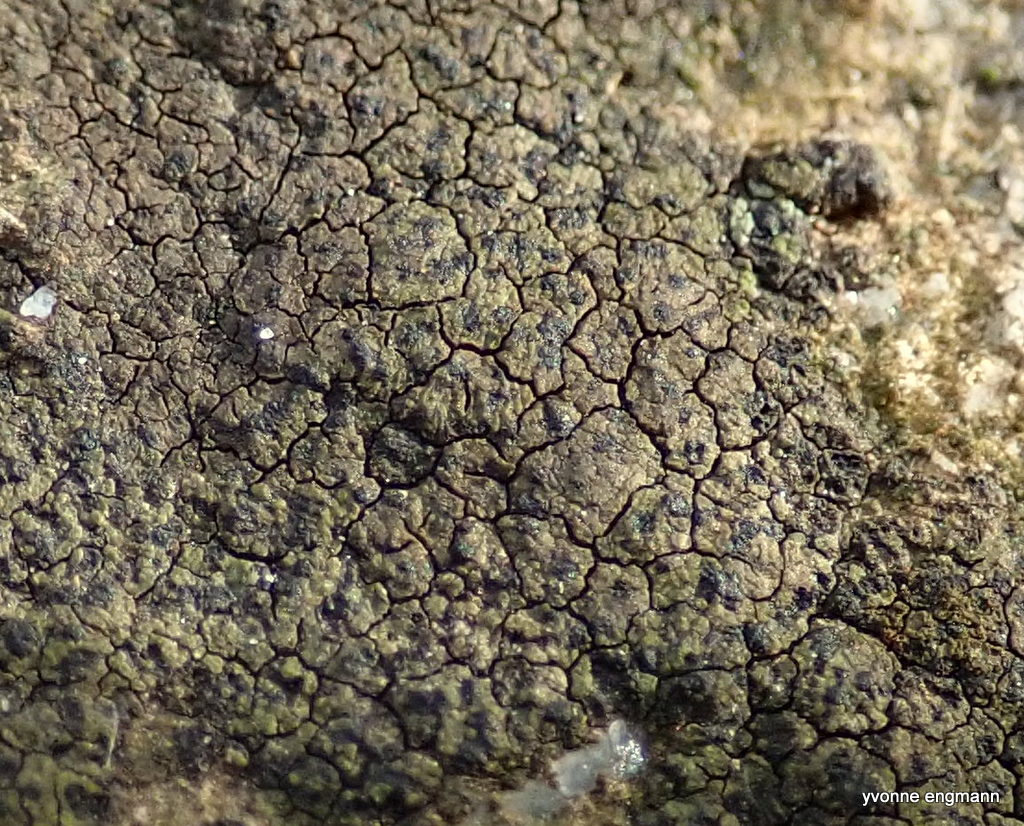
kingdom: Fungi
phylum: Ascomycota
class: Lecanoromycetes
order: Acarosporales
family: Acarosporaceae
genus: Acarospora
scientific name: Acarospora fuscata
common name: brun småsporelav
